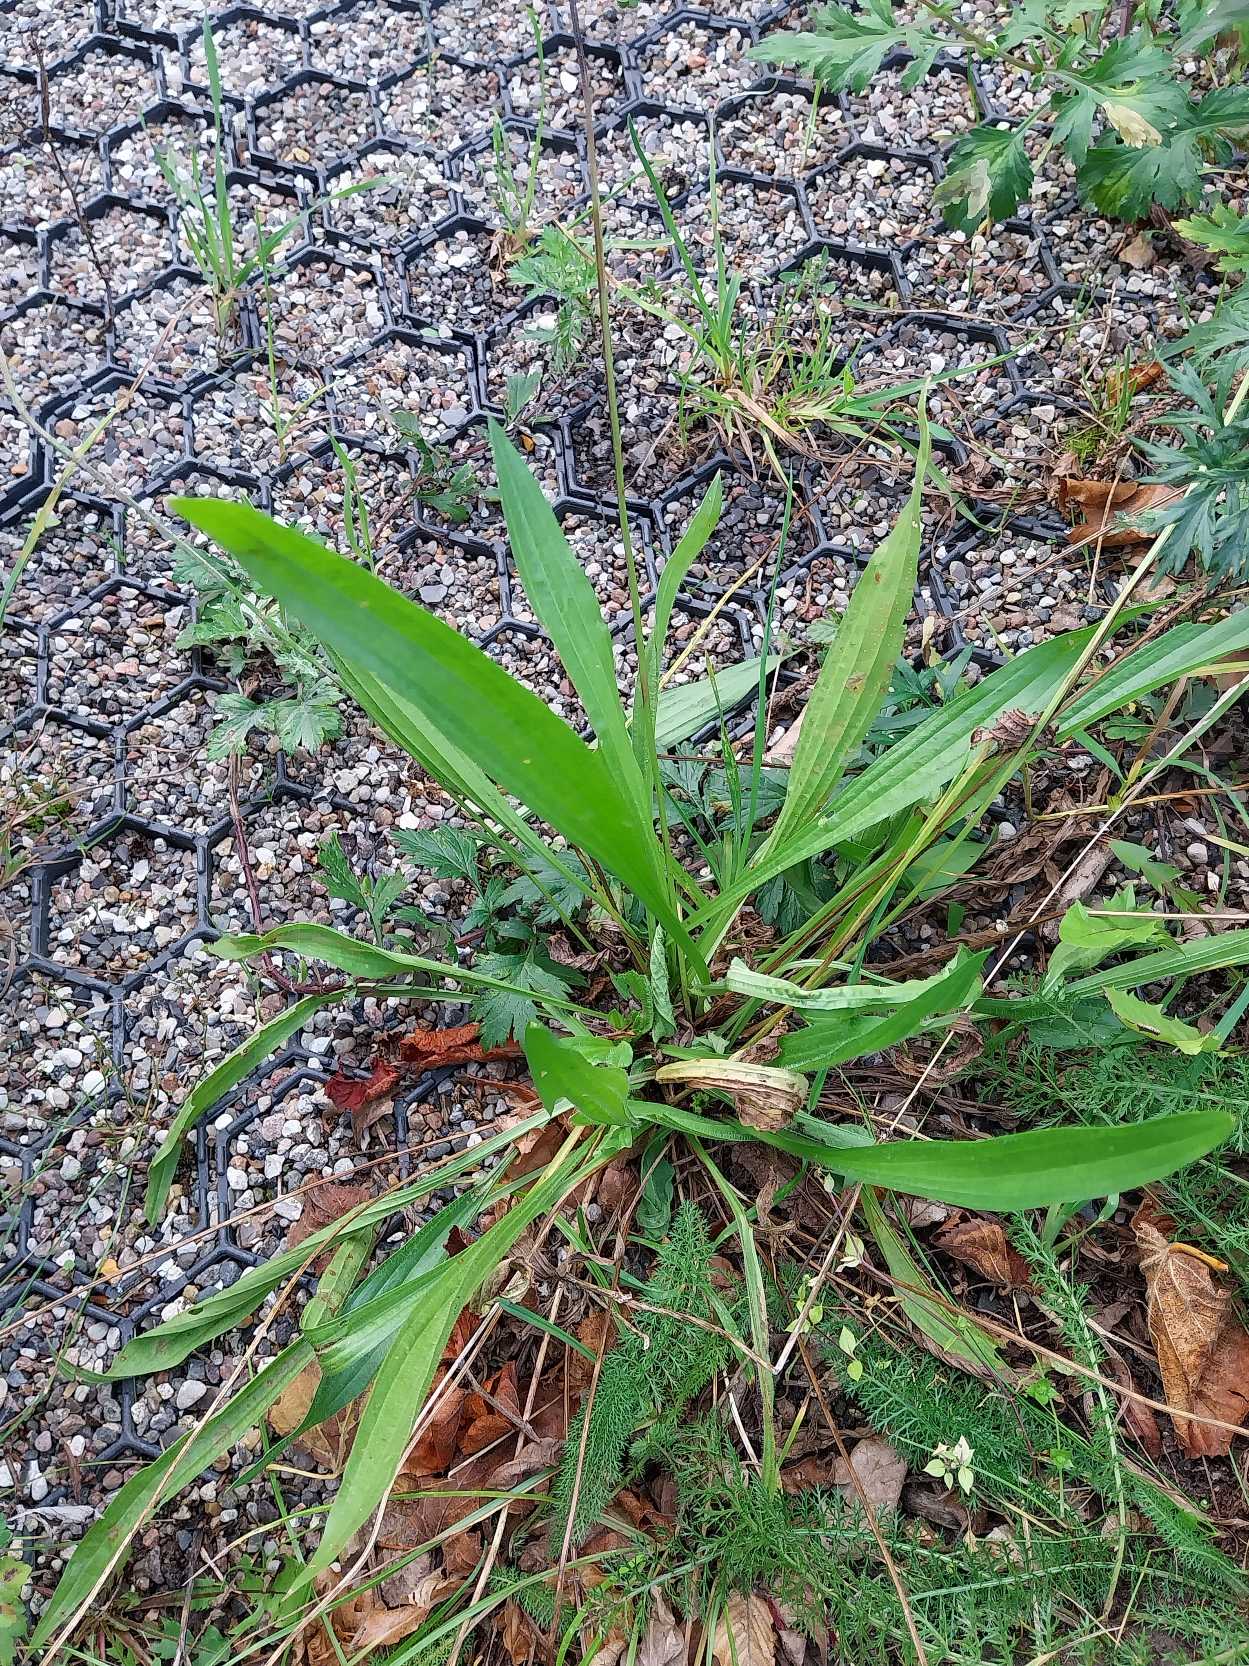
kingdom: Plantae
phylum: Tracheophyta
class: Magnoliopsida
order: Lamiales
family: Plantaginaceae
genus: Plantago
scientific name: Plantago lanceolata
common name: Lancet-vejbred
